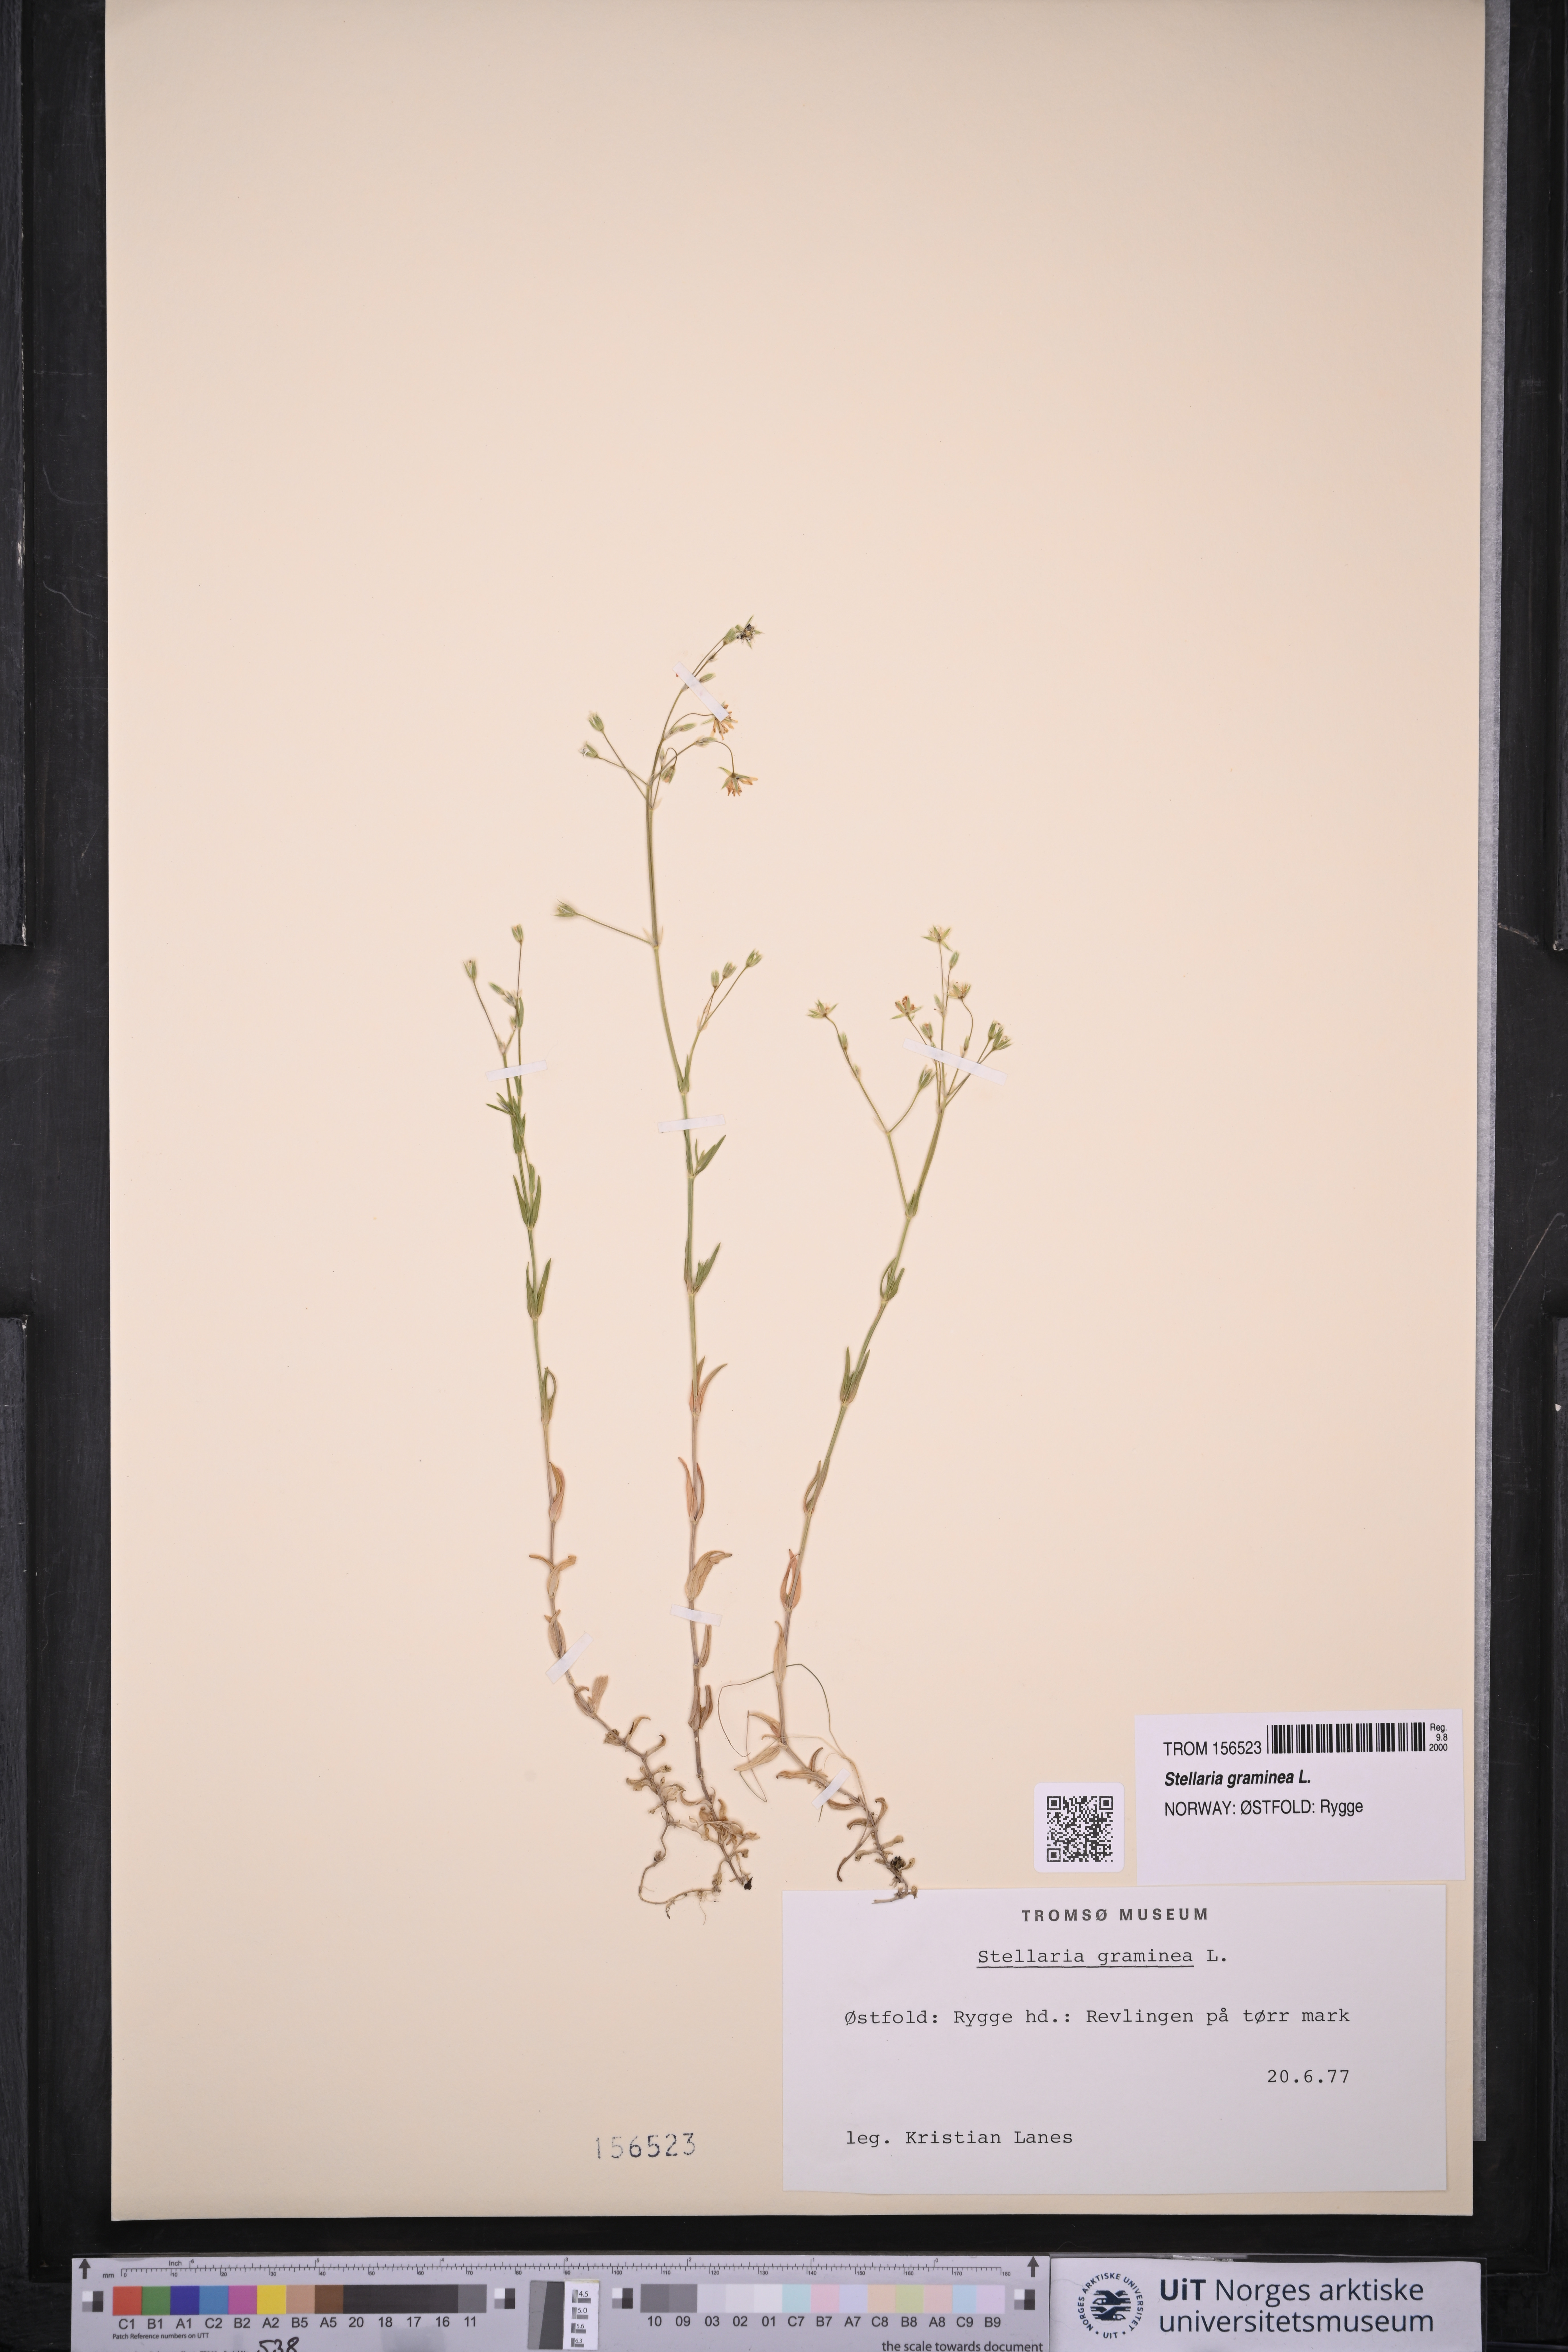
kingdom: Plantae
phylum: Tracheophyta
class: Magnoliopsida
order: Caryophyllales
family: Caryophyllaceae
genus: Stellaria
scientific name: Stellaria graminea
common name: Grass-like starwort
